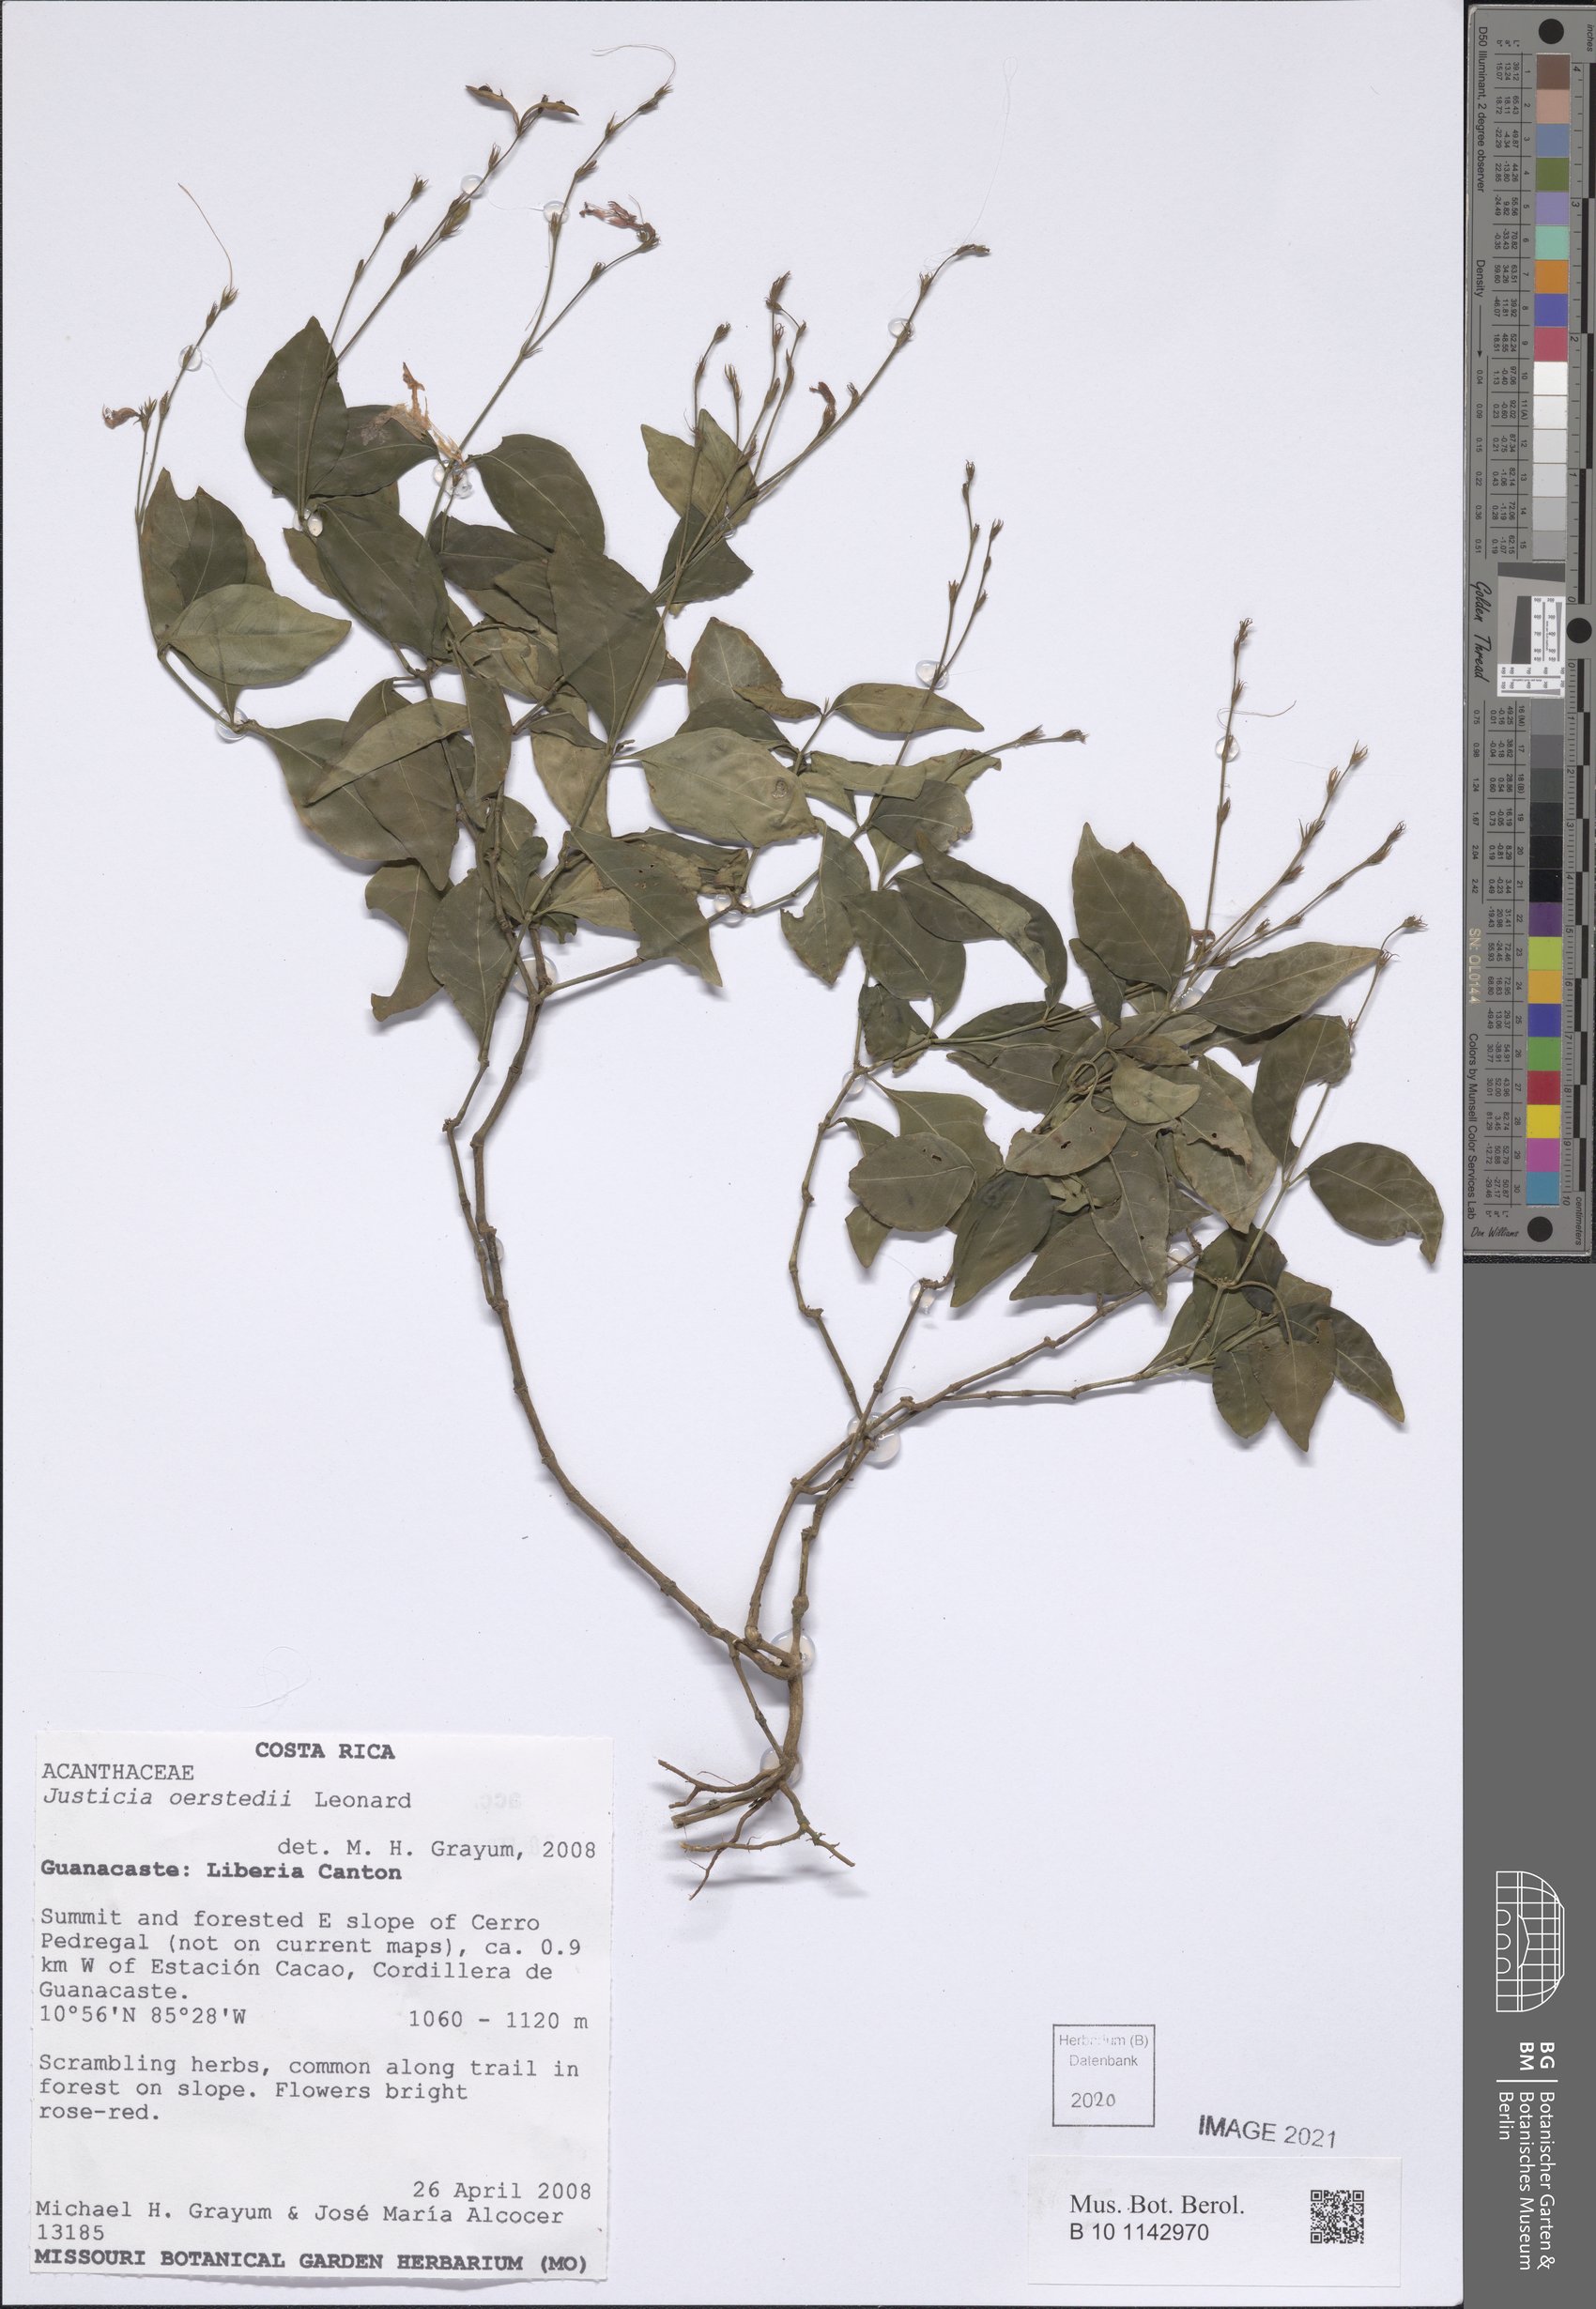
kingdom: Plantae
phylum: Tracheophyta
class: Magnoliopsida
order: Lamiales
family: Acanthaceae
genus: Dianthera
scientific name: Dianthera glabra
